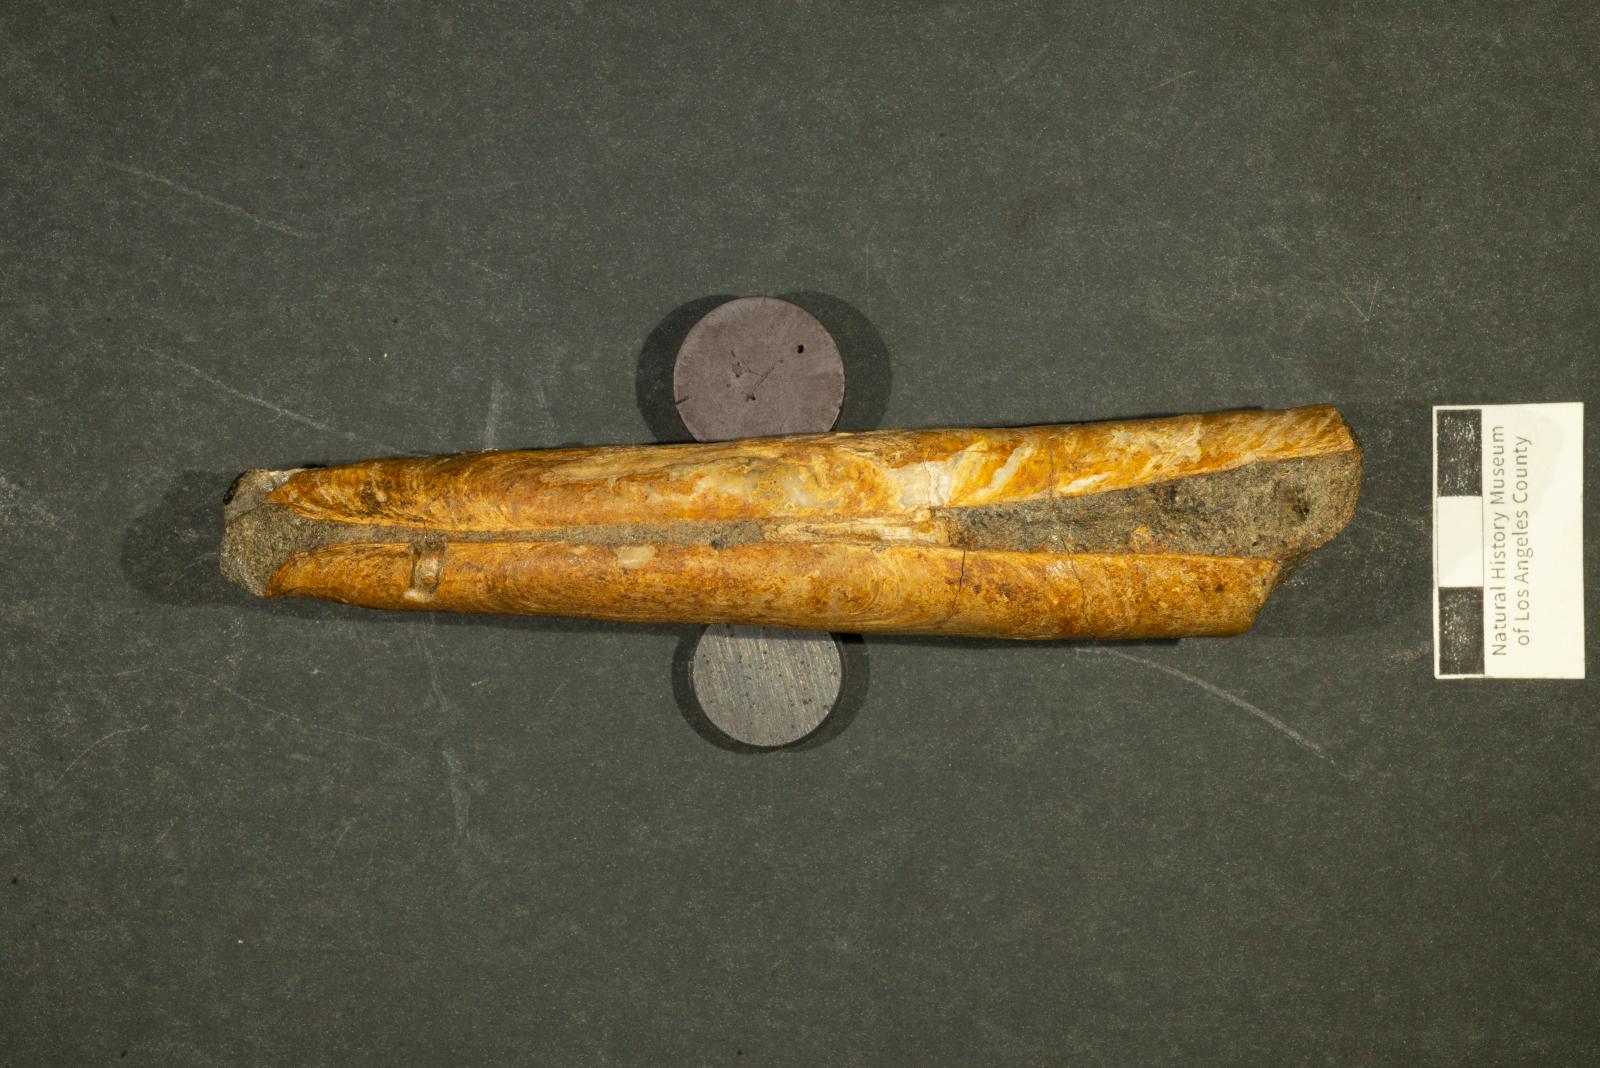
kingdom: Animalia
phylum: Mollusca
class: Bivalvia
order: Cardiida
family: Solecurtidae
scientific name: Solecurtidae
